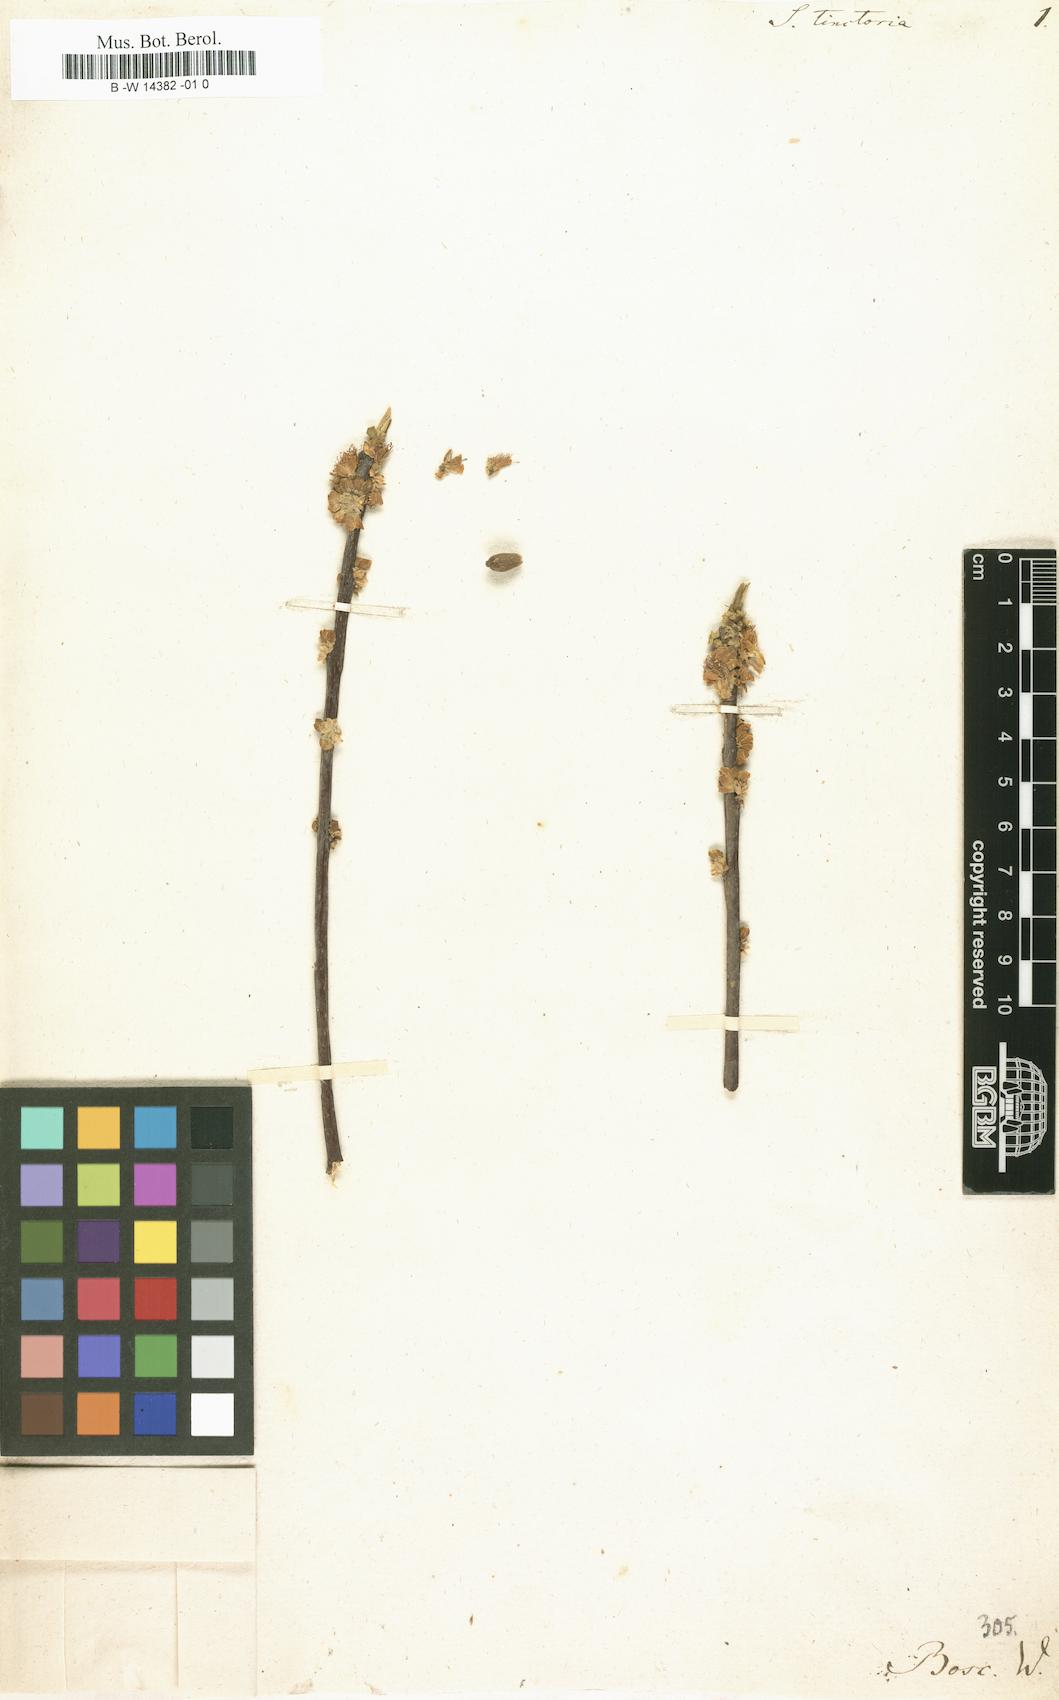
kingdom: Plantae
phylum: Tracheophyta
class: Magnoliopsida
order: Ericales
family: Symplocaceae
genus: Symplocos
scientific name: Symplocos tinctoria
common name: Horse-sugar
